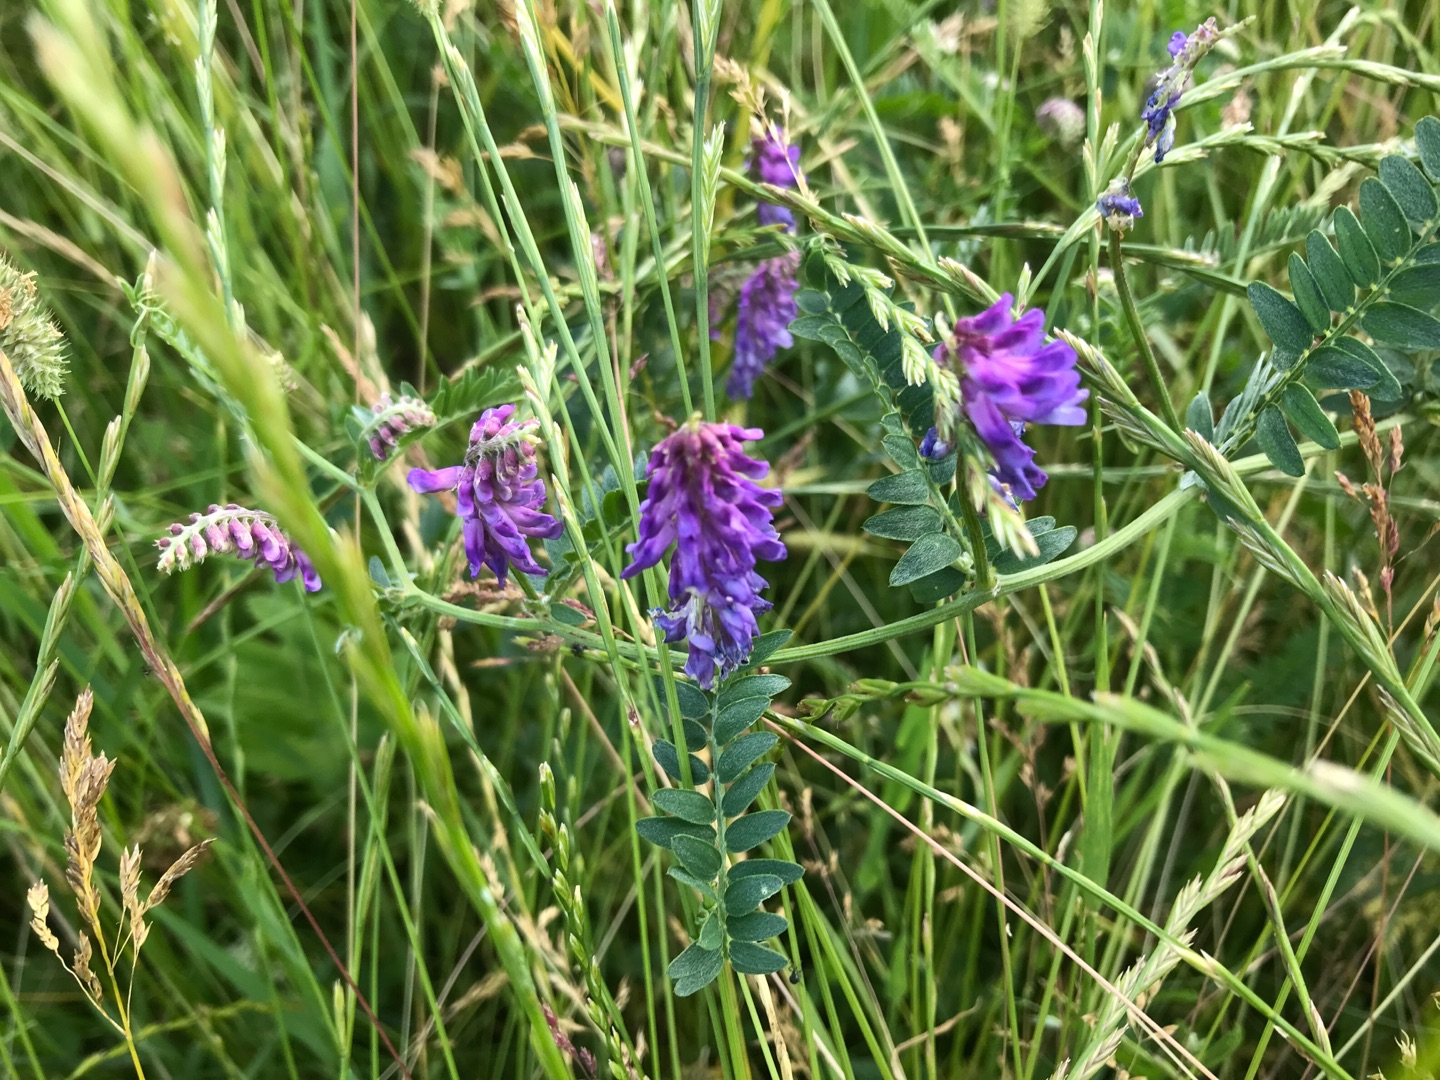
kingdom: Plantae
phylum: Tracheophyta
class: Magnoliopsida
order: Fabales
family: Fabaceae
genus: Vicia
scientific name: Vicia cracca
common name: Muse-vikke
